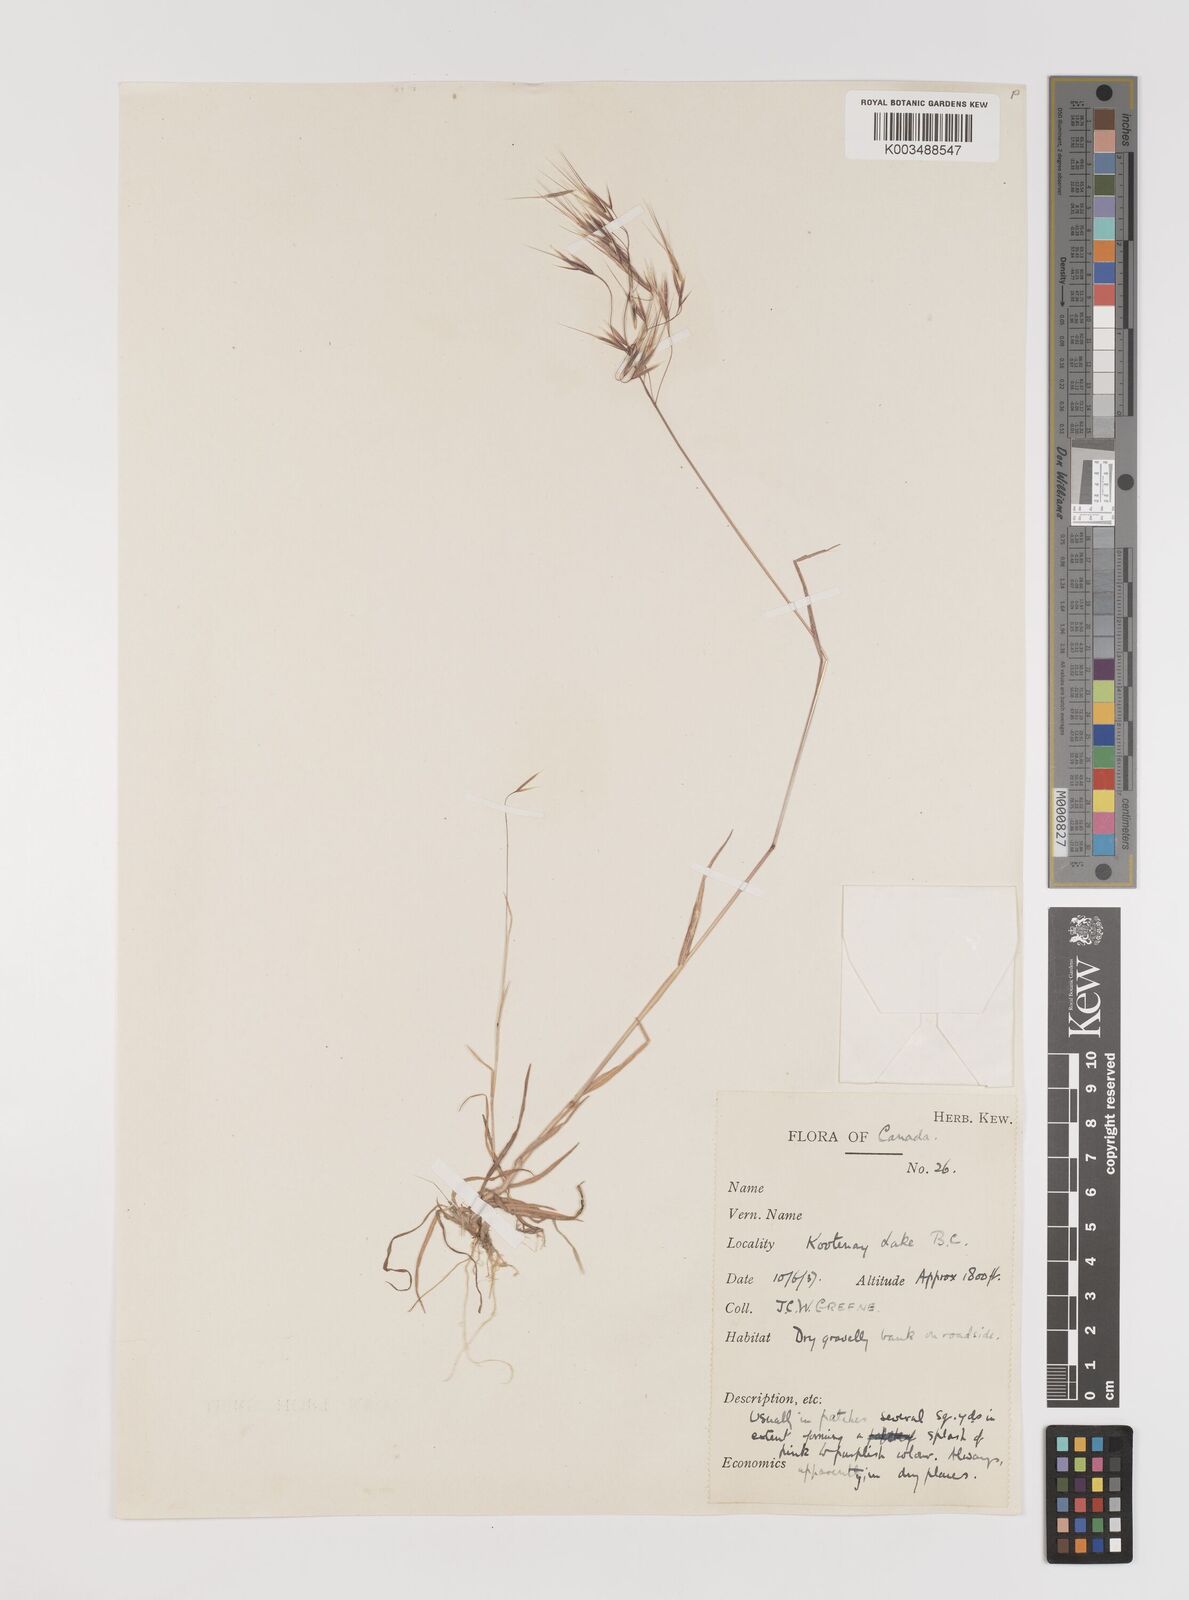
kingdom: Plantae
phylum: Tracheophyta
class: Liliopsida
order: Poales
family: Poaceae
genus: Bromus
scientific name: Bromus tectorum
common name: Cheatgrass
